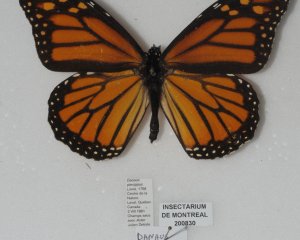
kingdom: Animalia
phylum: Arthropoda
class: Insecta
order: Lepidoptera
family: Nymphalidae
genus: Danaus
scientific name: Danaus plexippus
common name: Monarch
